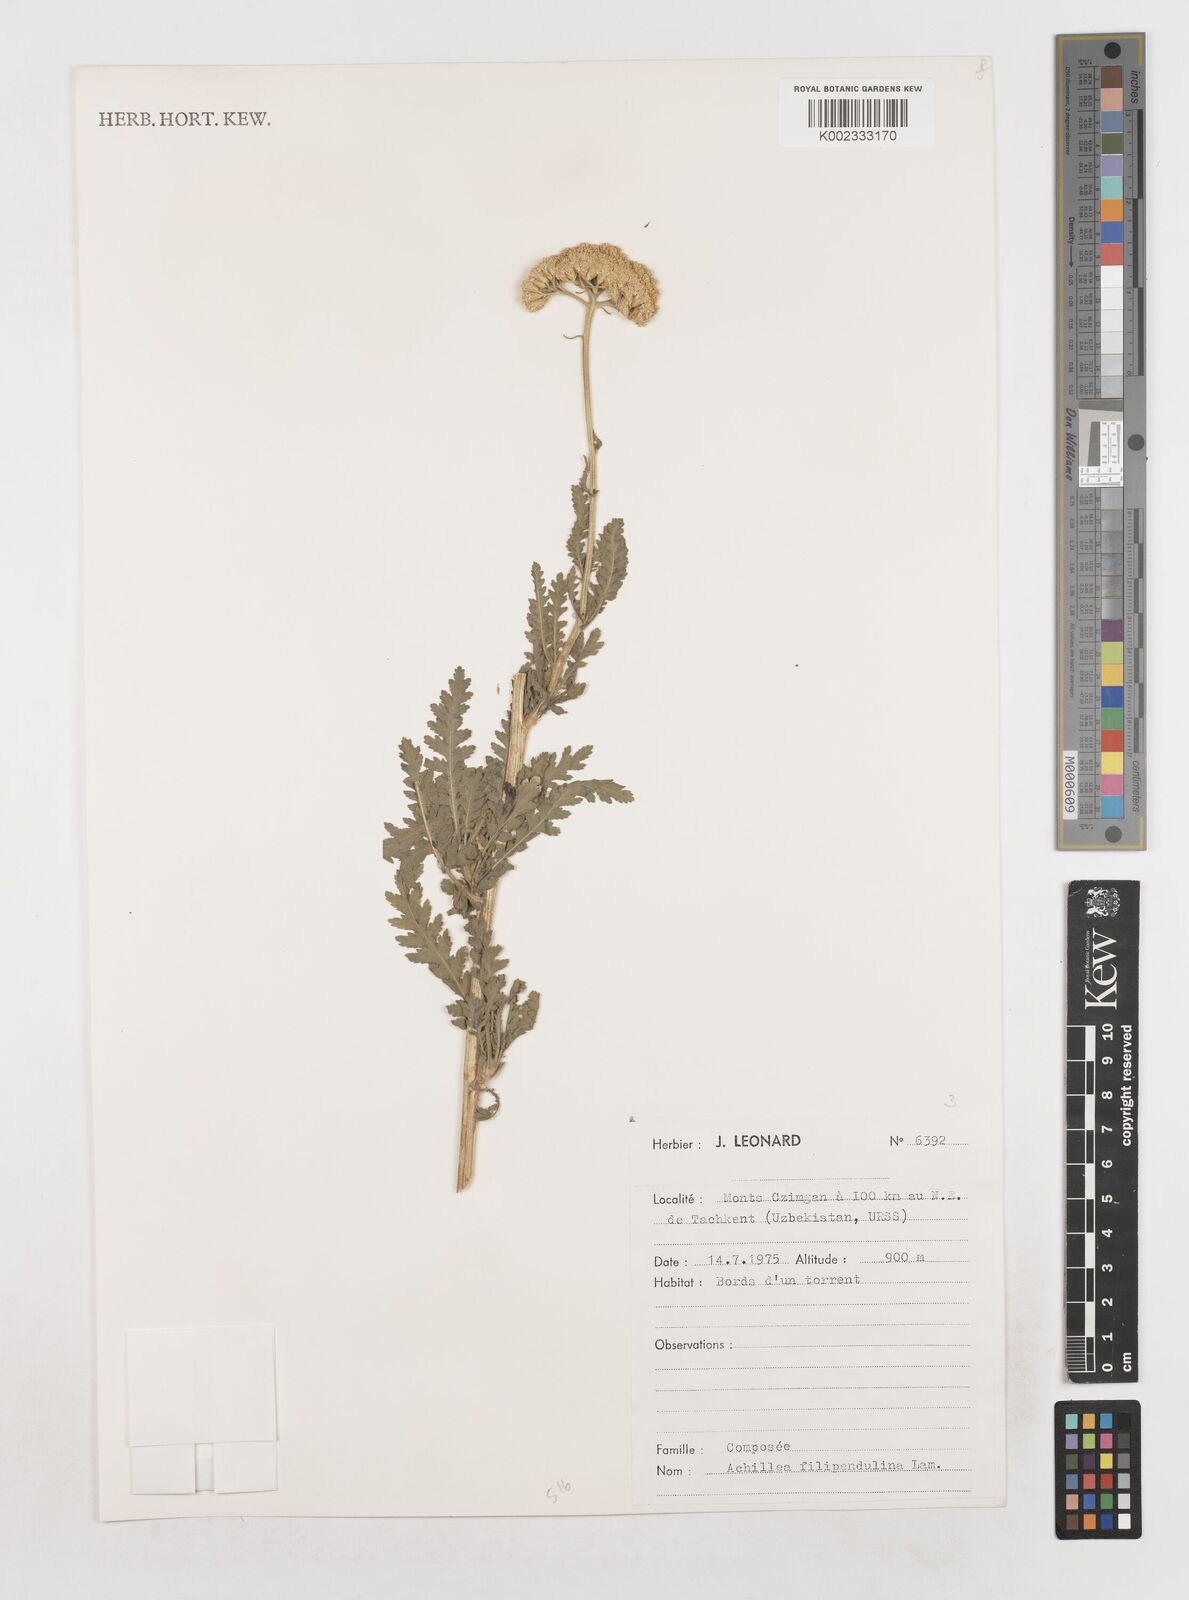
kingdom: Plantae
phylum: Tracheophyta
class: Magnoliopsida
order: Asterales
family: Asteraceae
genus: Achillea
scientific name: Achillea filipendulina
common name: Fernleaf yarrow
